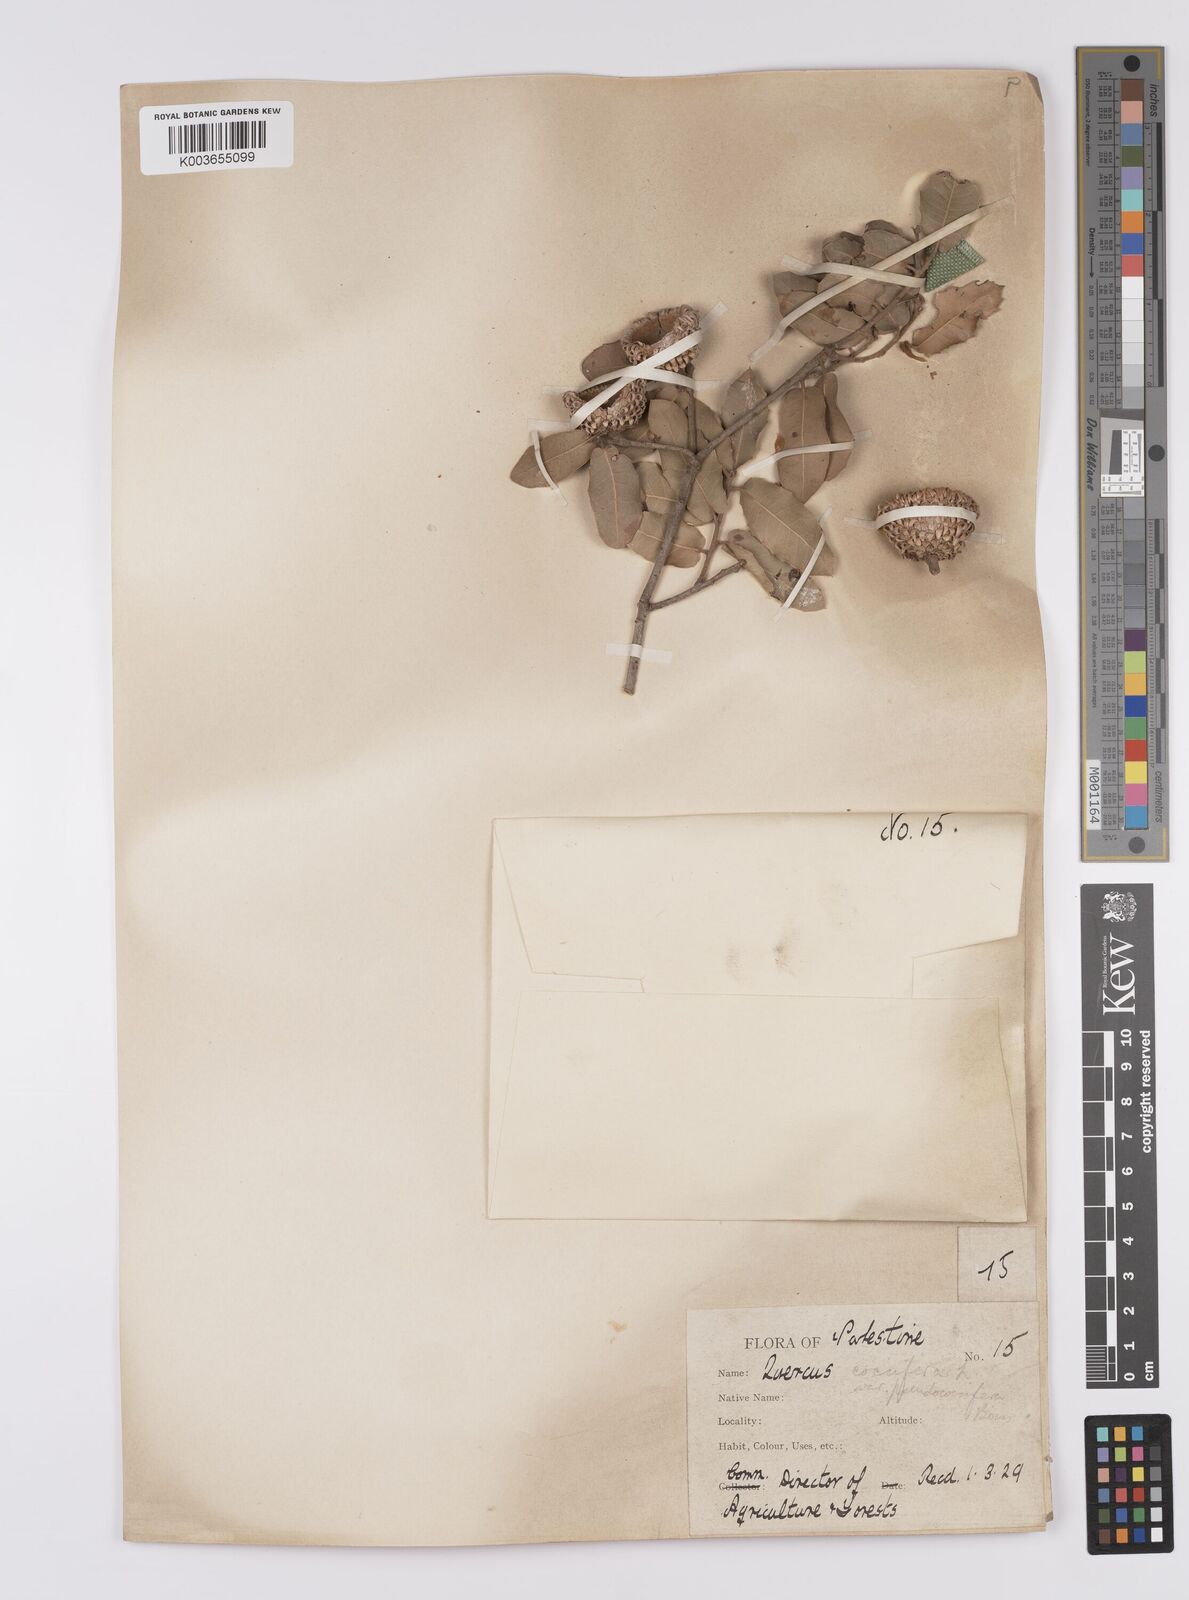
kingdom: Plantae
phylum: Tracheophyta
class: Magnoliopsida
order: Fagales
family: Fagaceae
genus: Quercus
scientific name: Quercus coccifera
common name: Kermes oak
